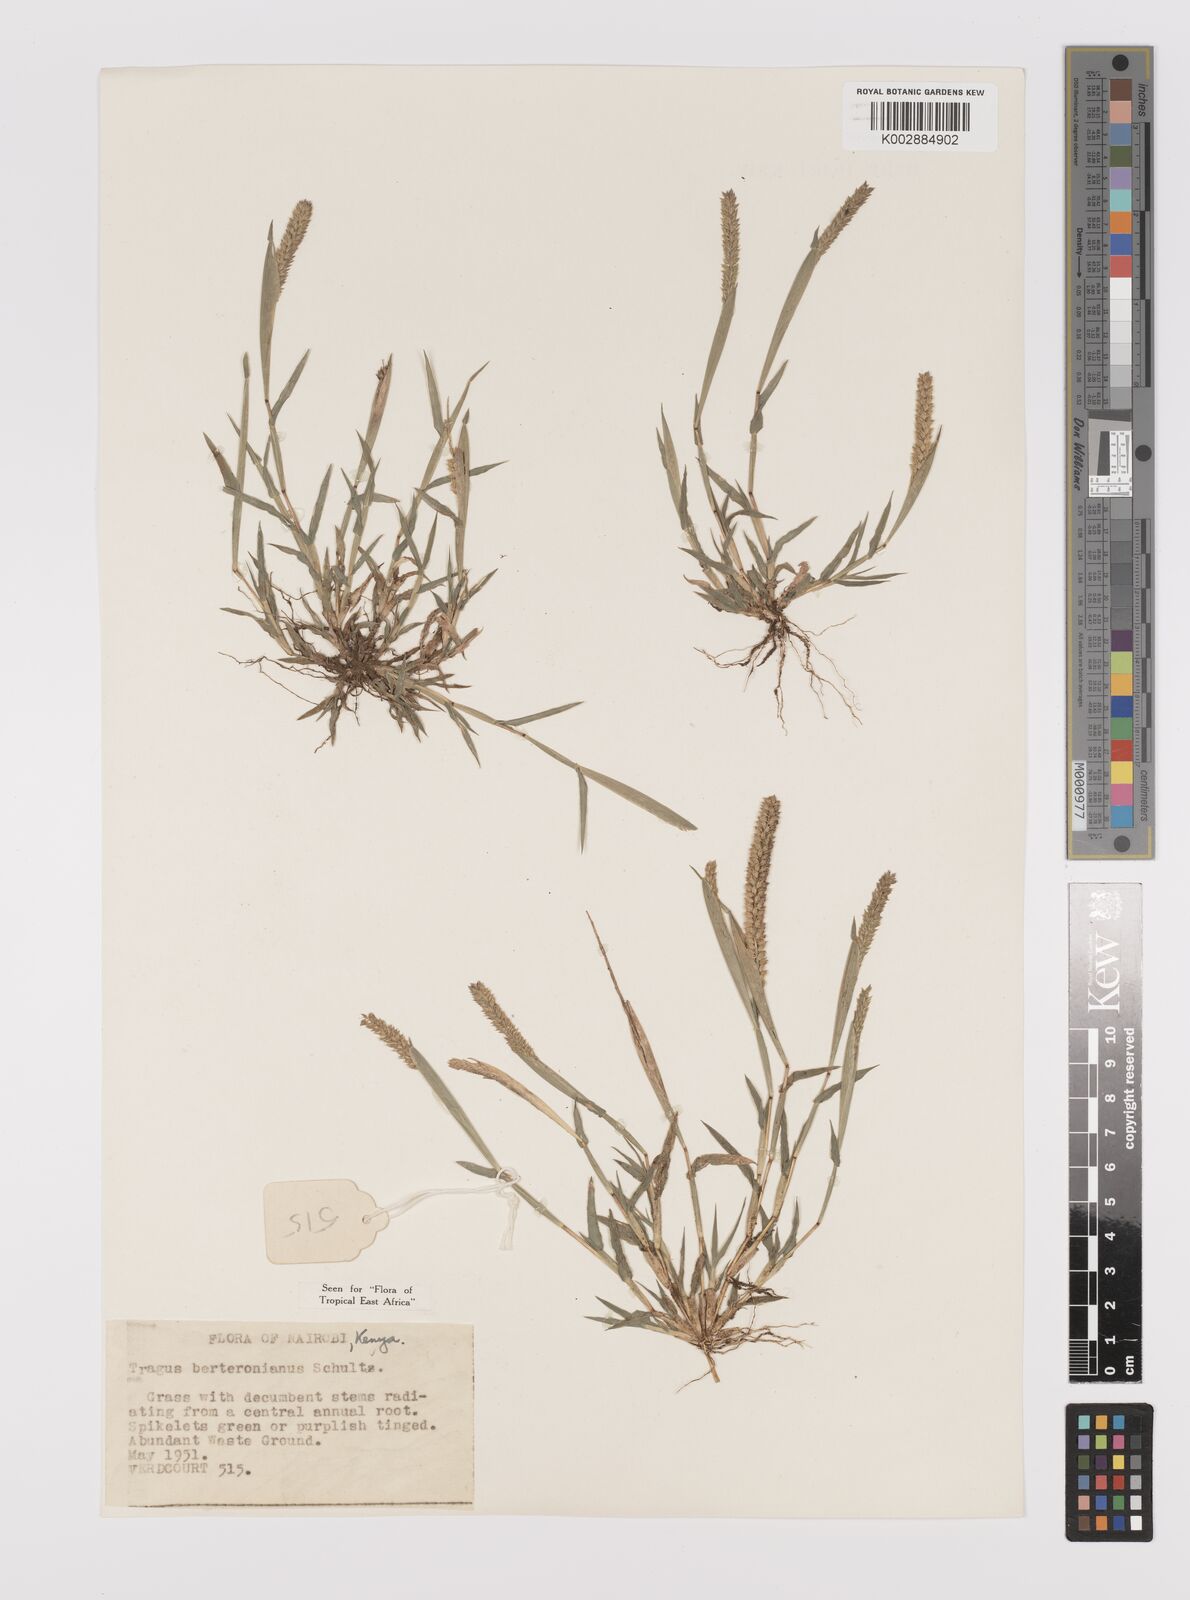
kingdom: Plantae
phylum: Tracheophyta
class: Liliopsida
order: Poales
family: Poaceae
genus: Tragus
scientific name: Tragus berteronianus
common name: African bur-grass
